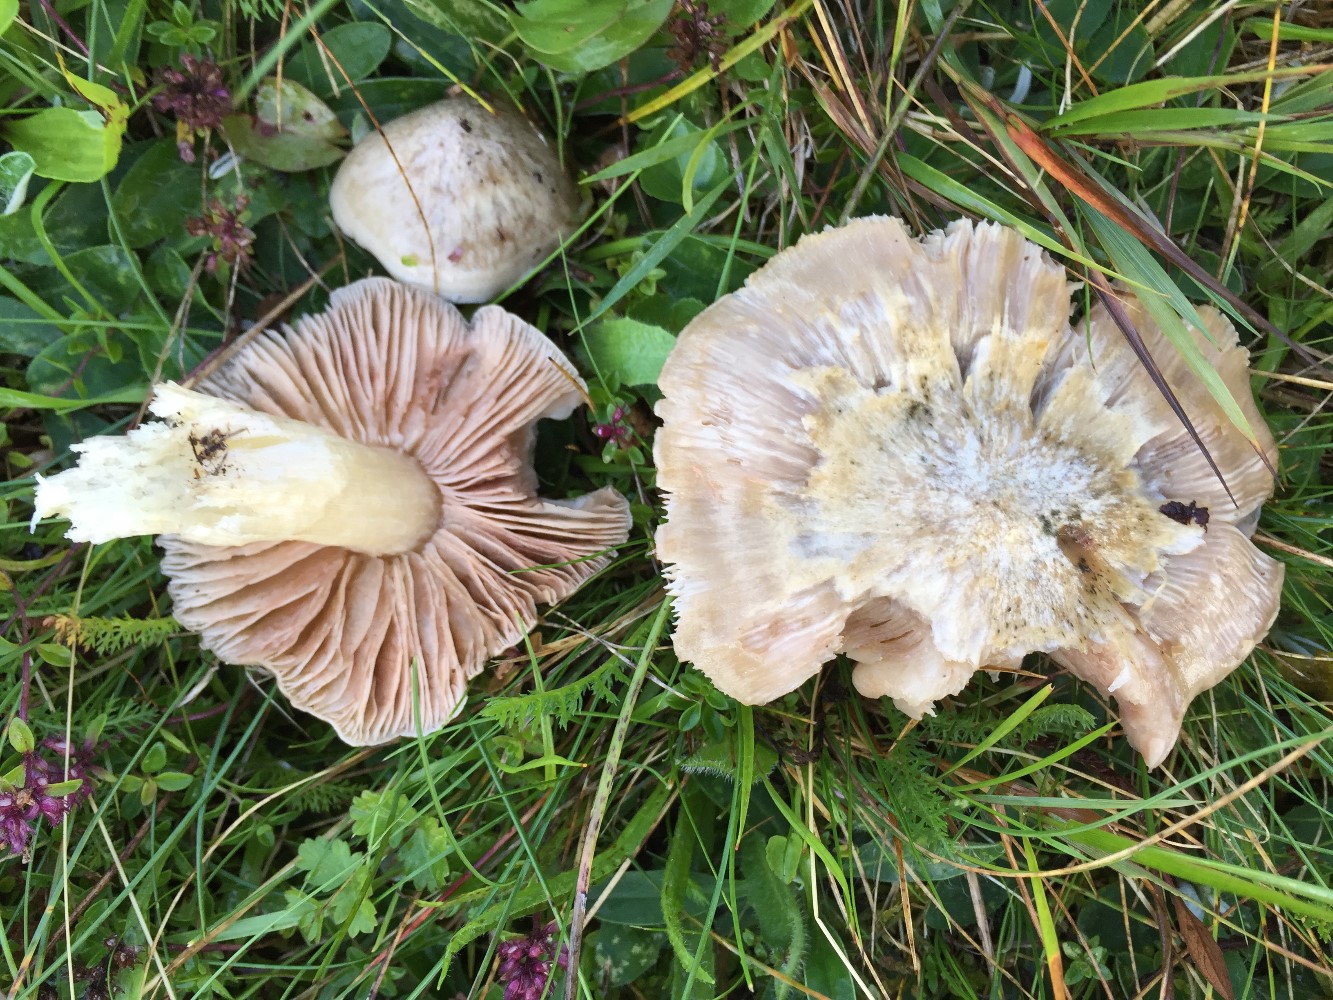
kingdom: Fungi
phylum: Basidiomycota
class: Agaricomycetes
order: Agaricales
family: Entolomataceae
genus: Entoloma
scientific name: Entoloma prunuloides
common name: mel-rødblad
